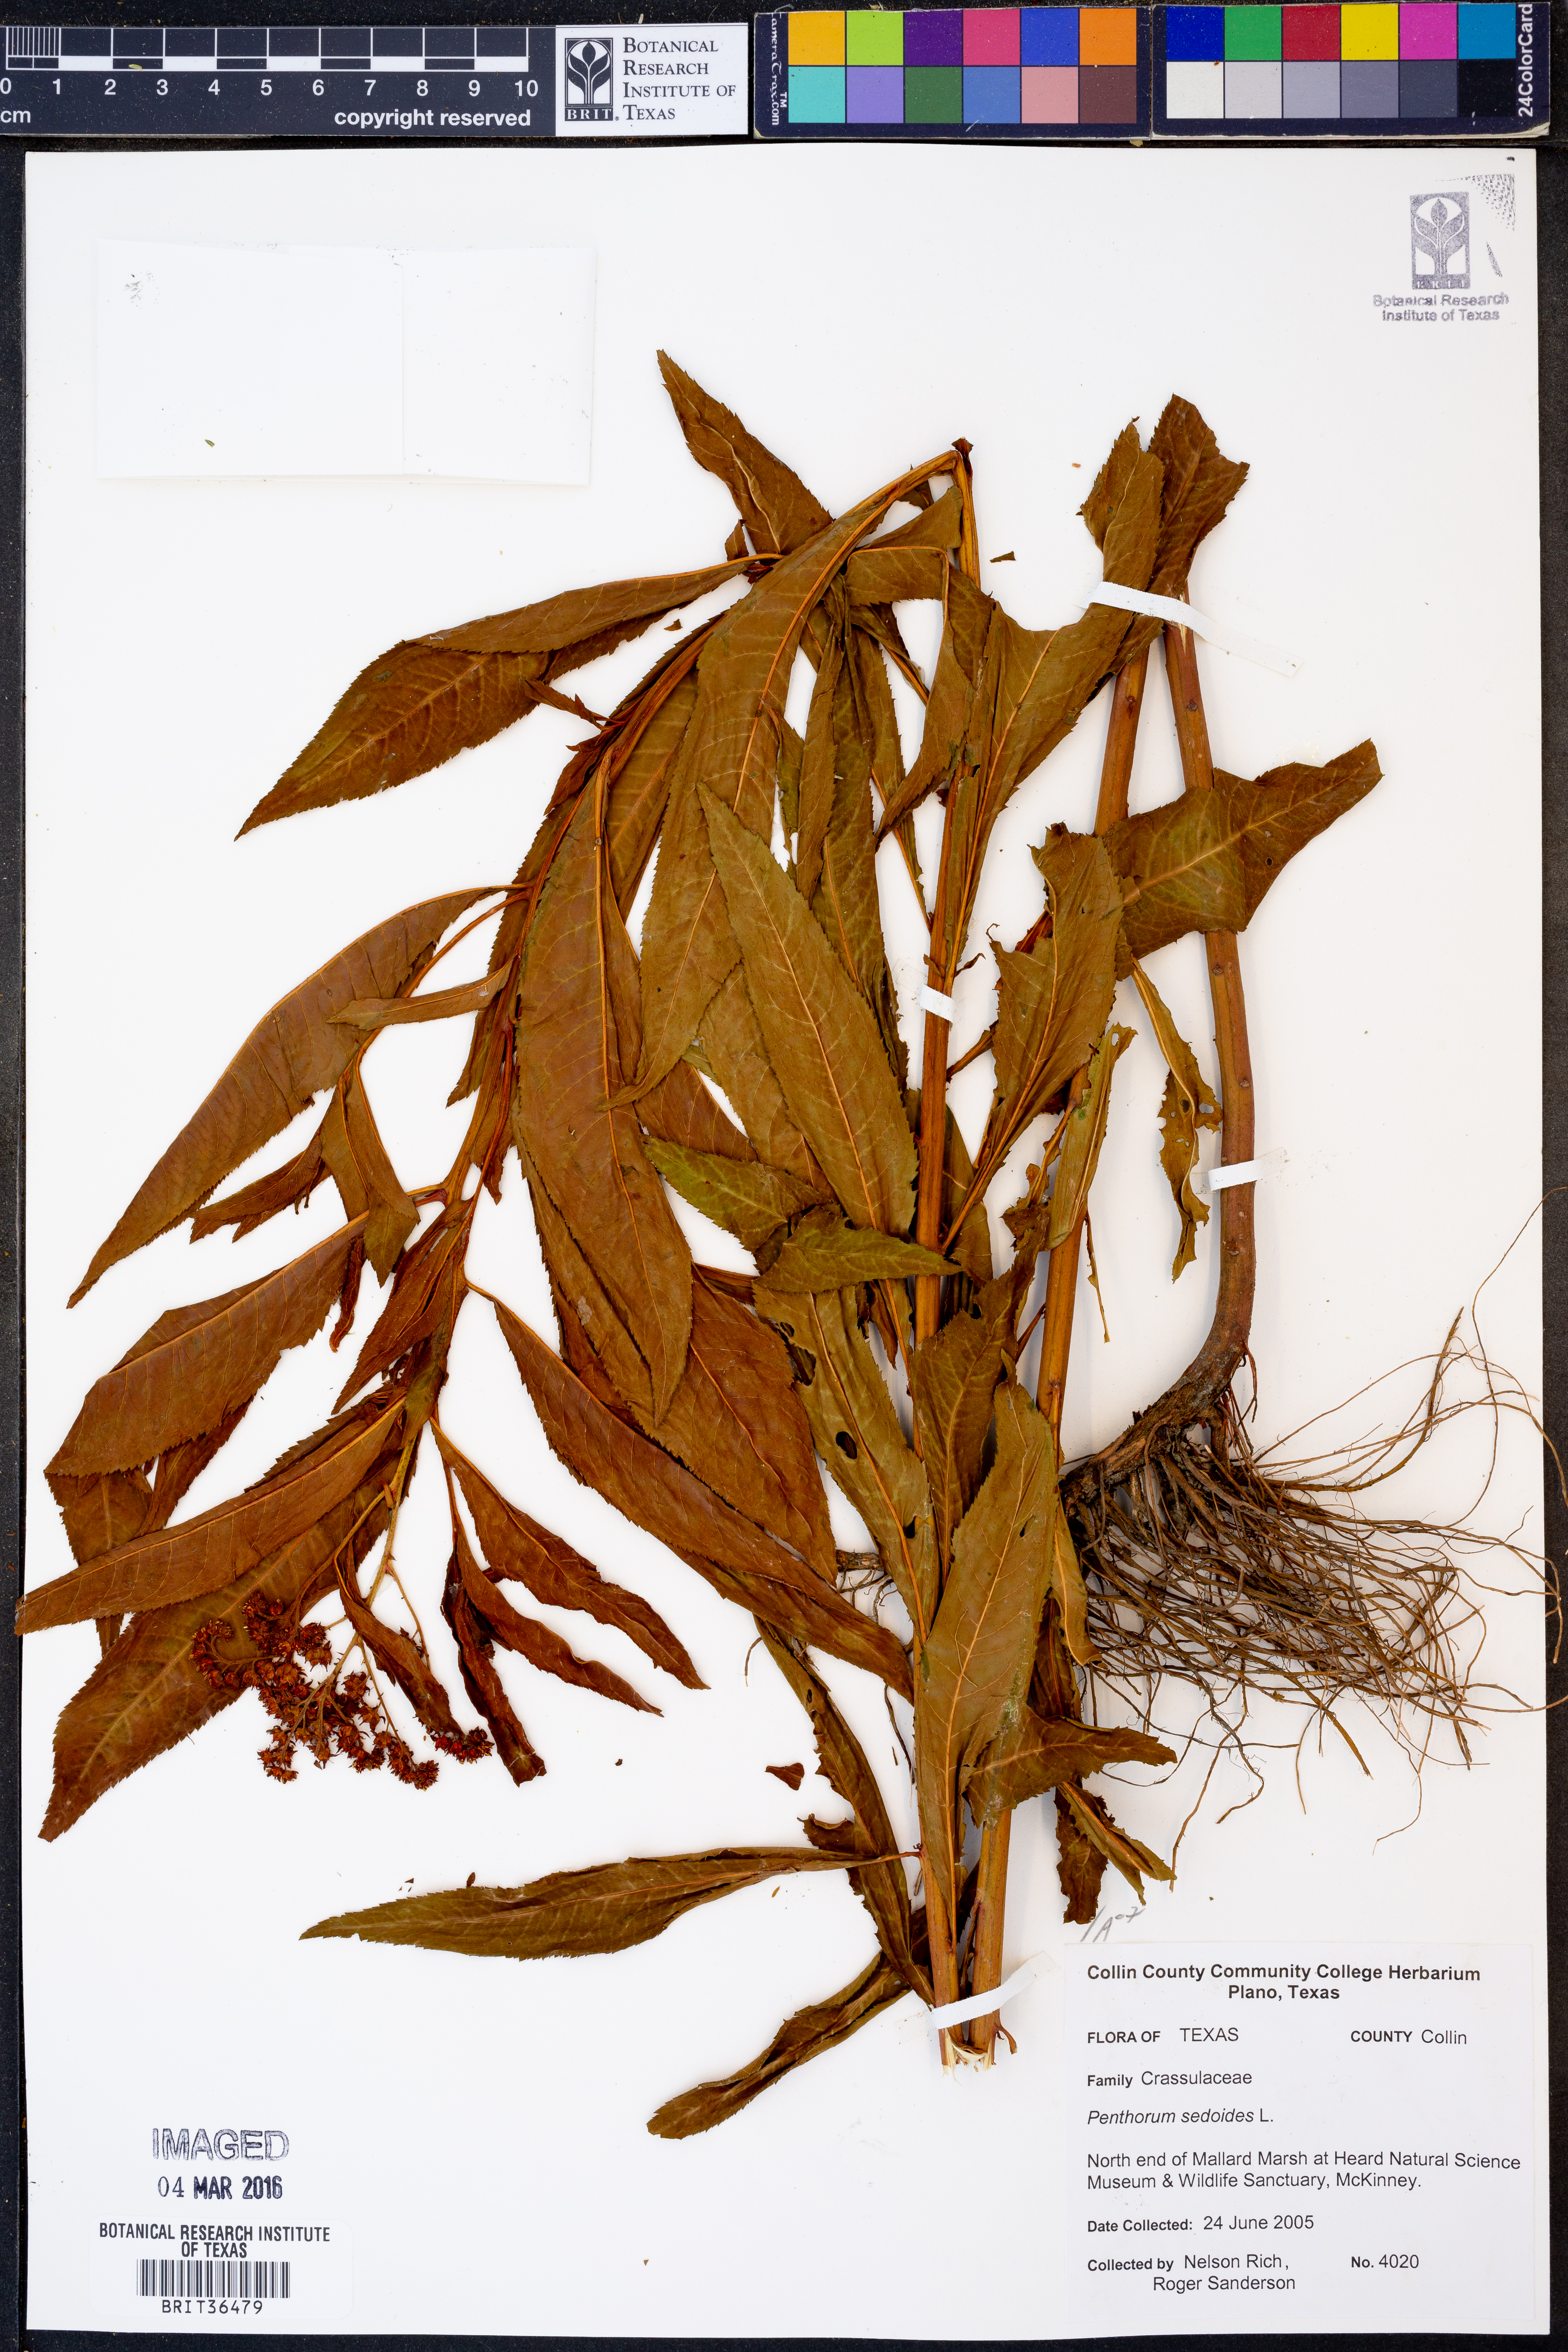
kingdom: Plantae
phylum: Tracheophyta
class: Magnoliopsida
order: Saxifragales
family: Penthoraceae
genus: Penthorum
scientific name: Penthorum sedoides
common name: Ditch stonecrop
